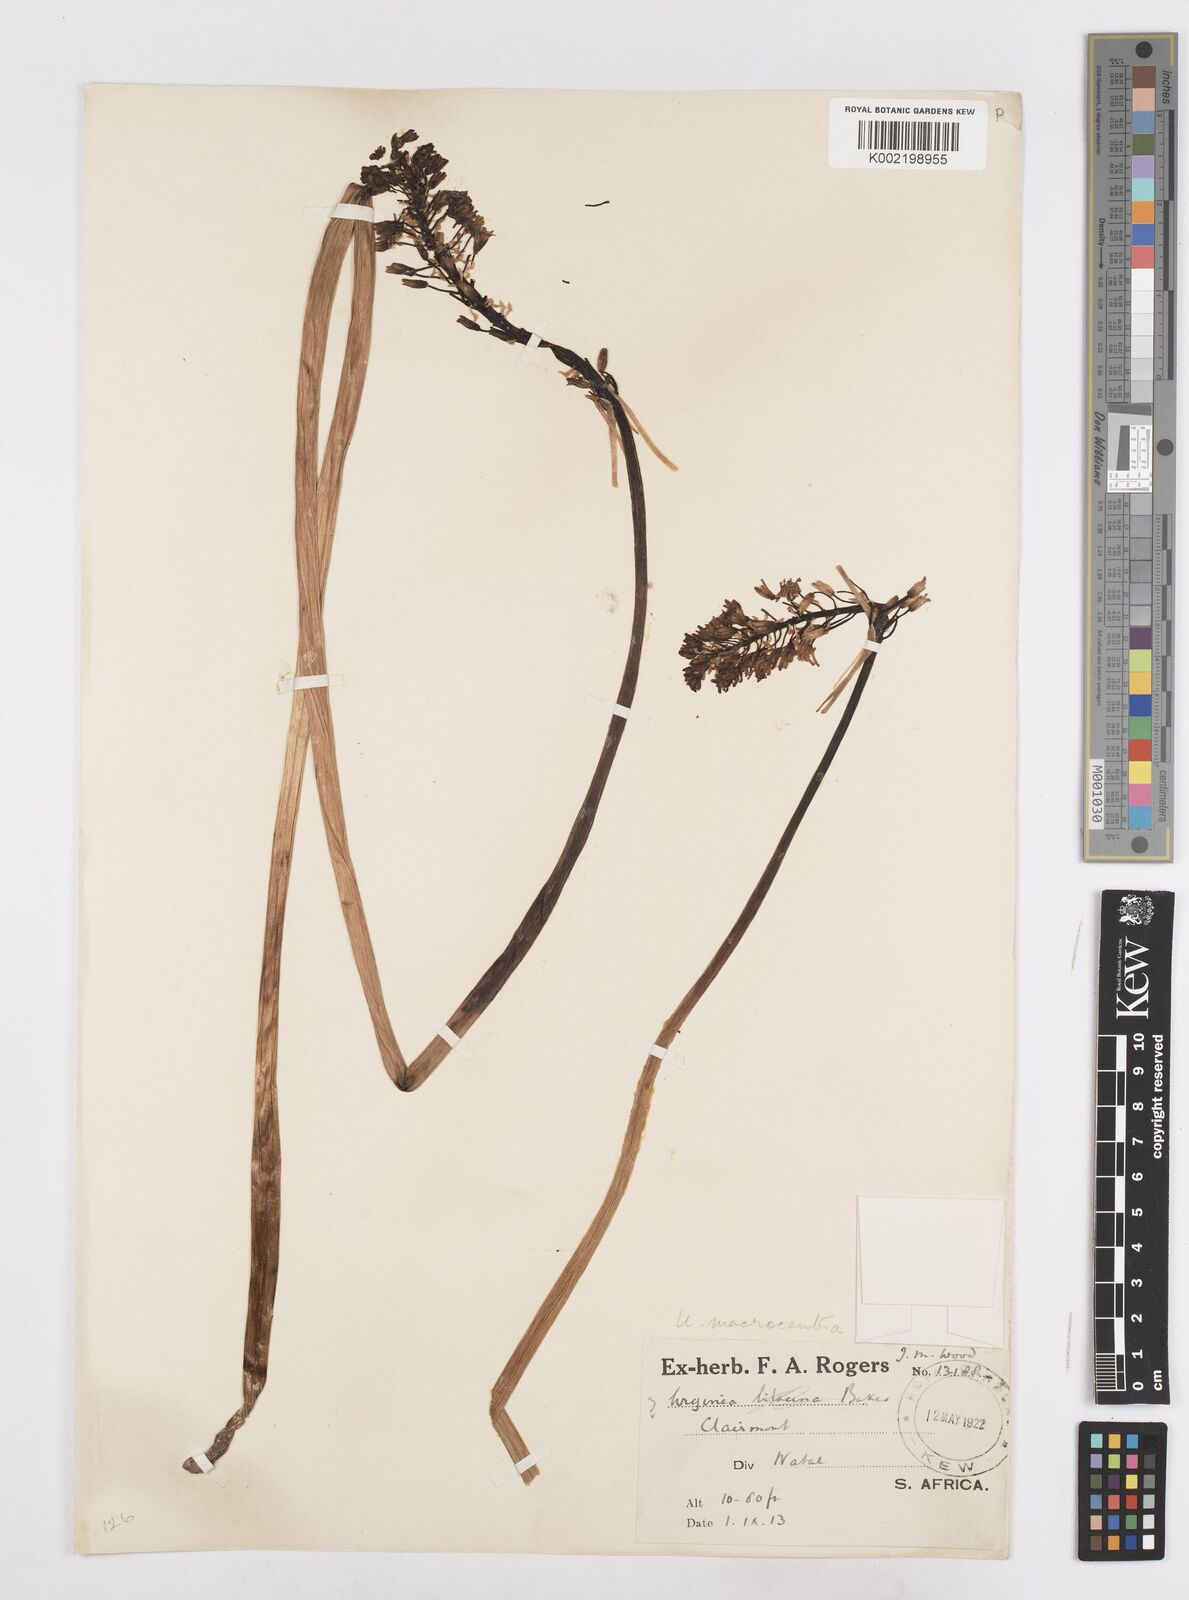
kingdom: Plantae
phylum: Tracheophyta
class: Liliopsida
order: Asparagales
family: Asparagaceae
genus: Drimia
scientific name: Drimia macrocentra
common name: Natal slangkop
